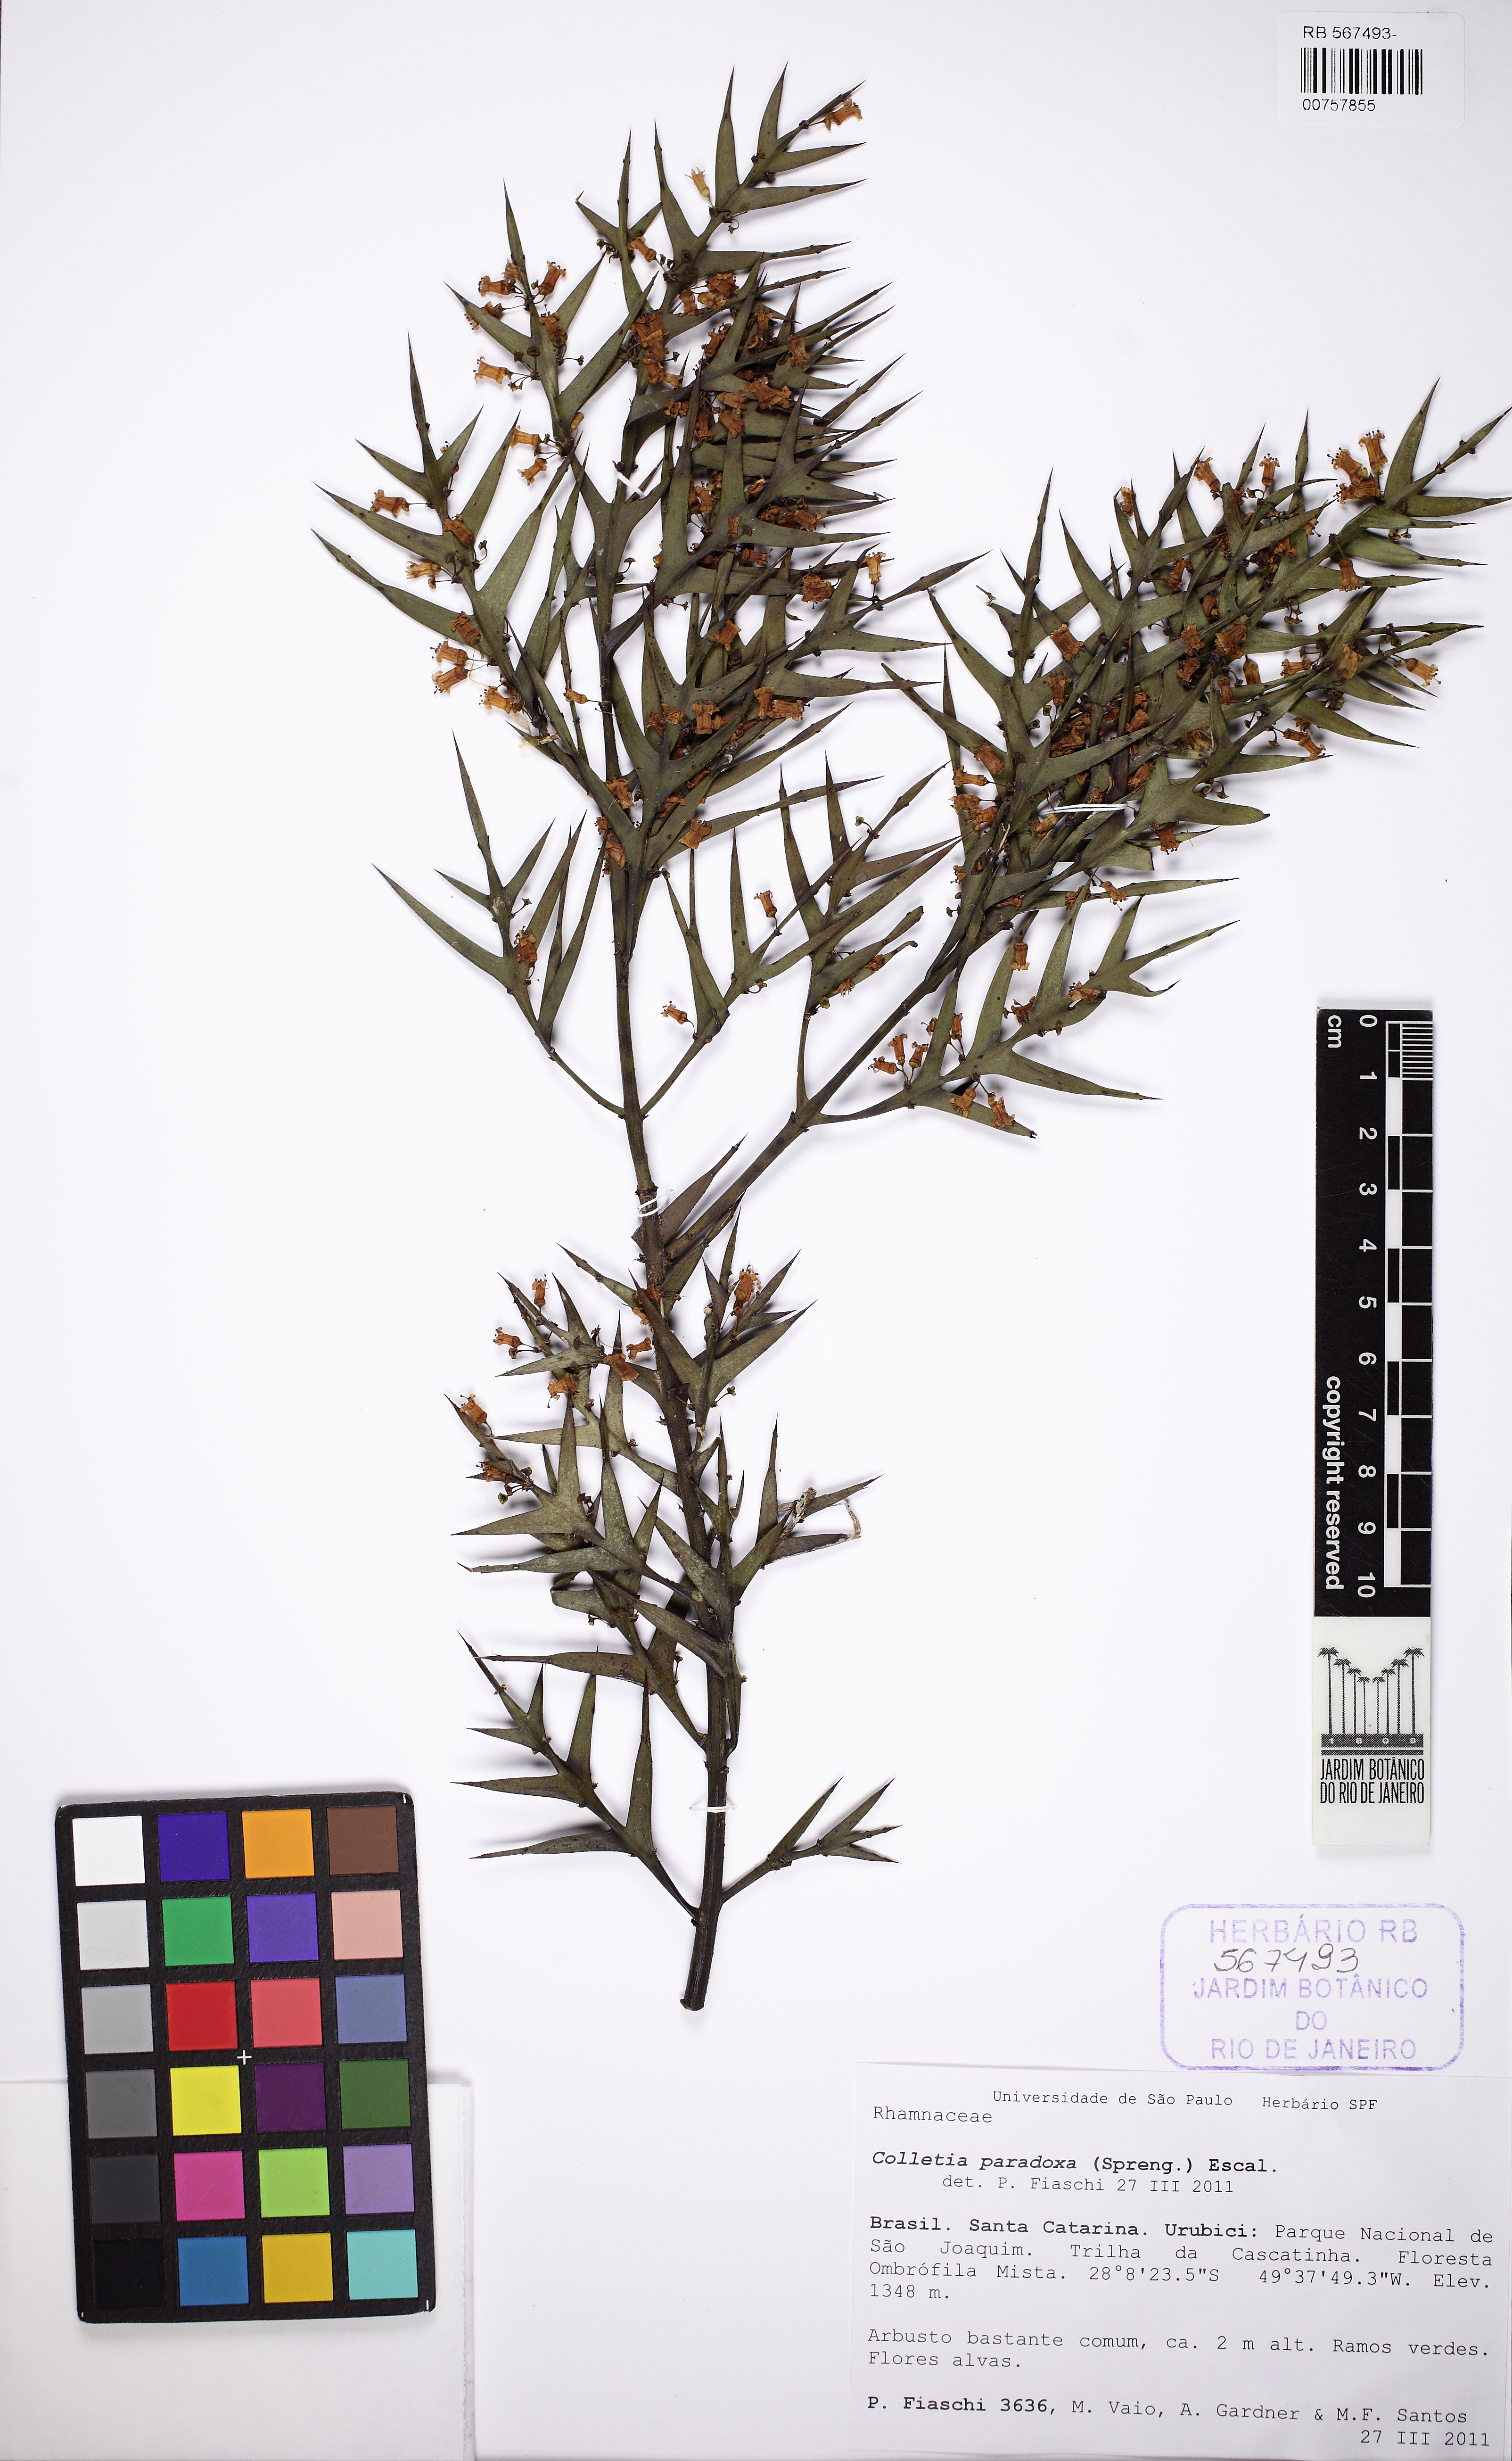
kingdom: Plantae
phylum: Tracheophyta
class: Magnoliopsida
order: Rosales
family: Rhamnaceae
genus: Colletia
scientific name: Colletia paradoxa
